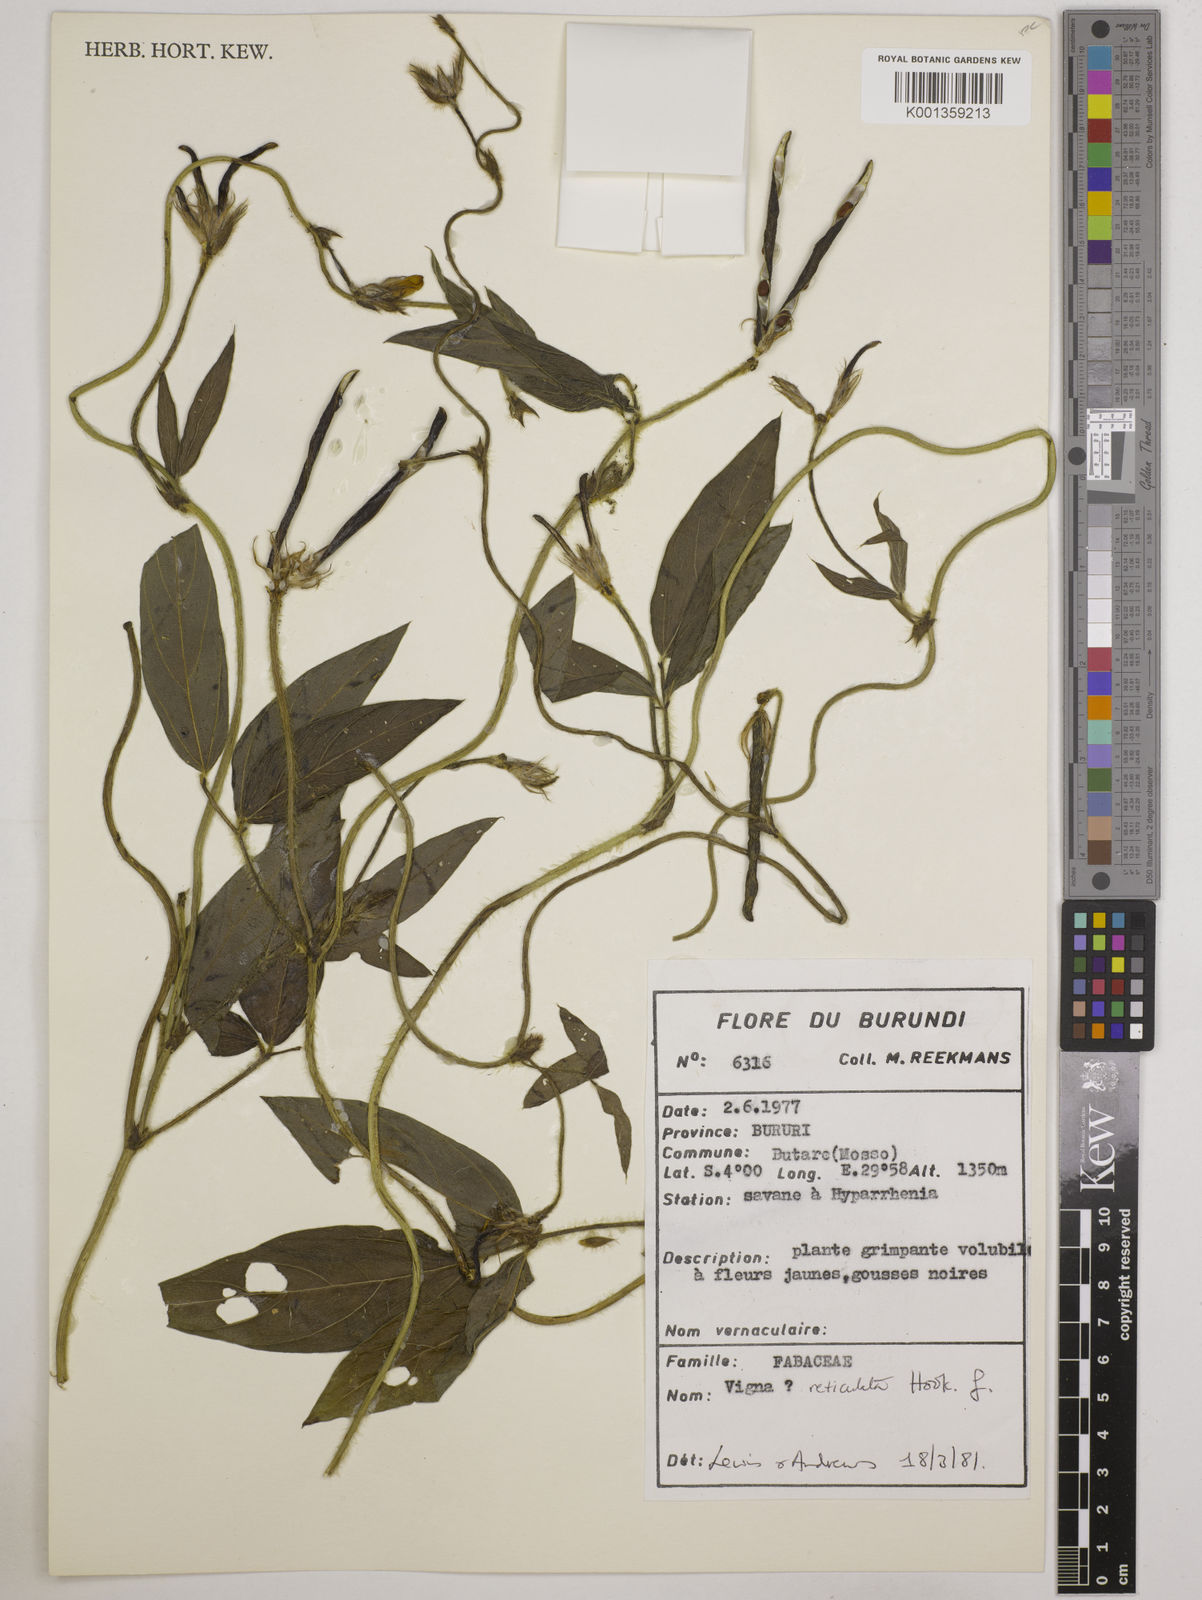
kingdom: Plantae
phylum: Tracheophyta
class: Magnoliopsida
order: Fabales
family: Fabaceae
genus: Vigna
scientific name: Vigna reticulata
